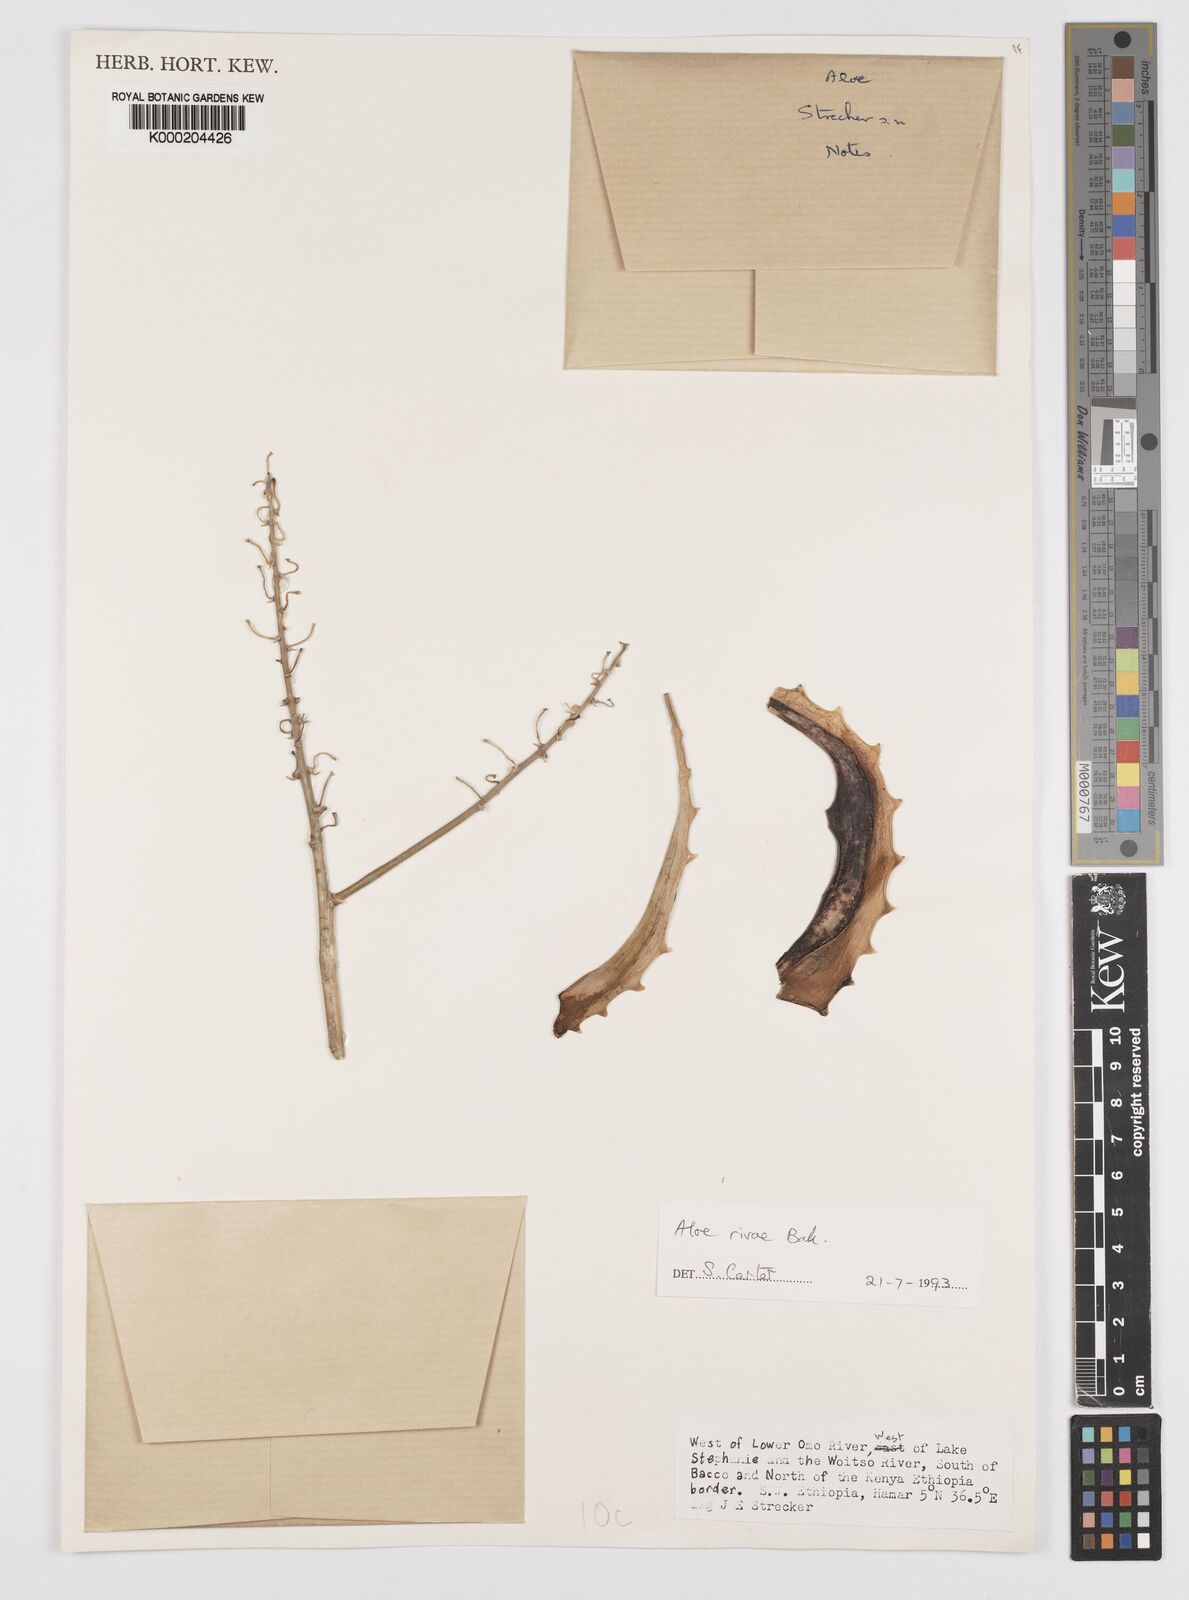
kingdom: Plantae
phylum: Tracheophyta
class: Liliopsida
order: Asparagales
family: Asphodelaceae
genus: Aloe
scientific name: Aloe rivae
